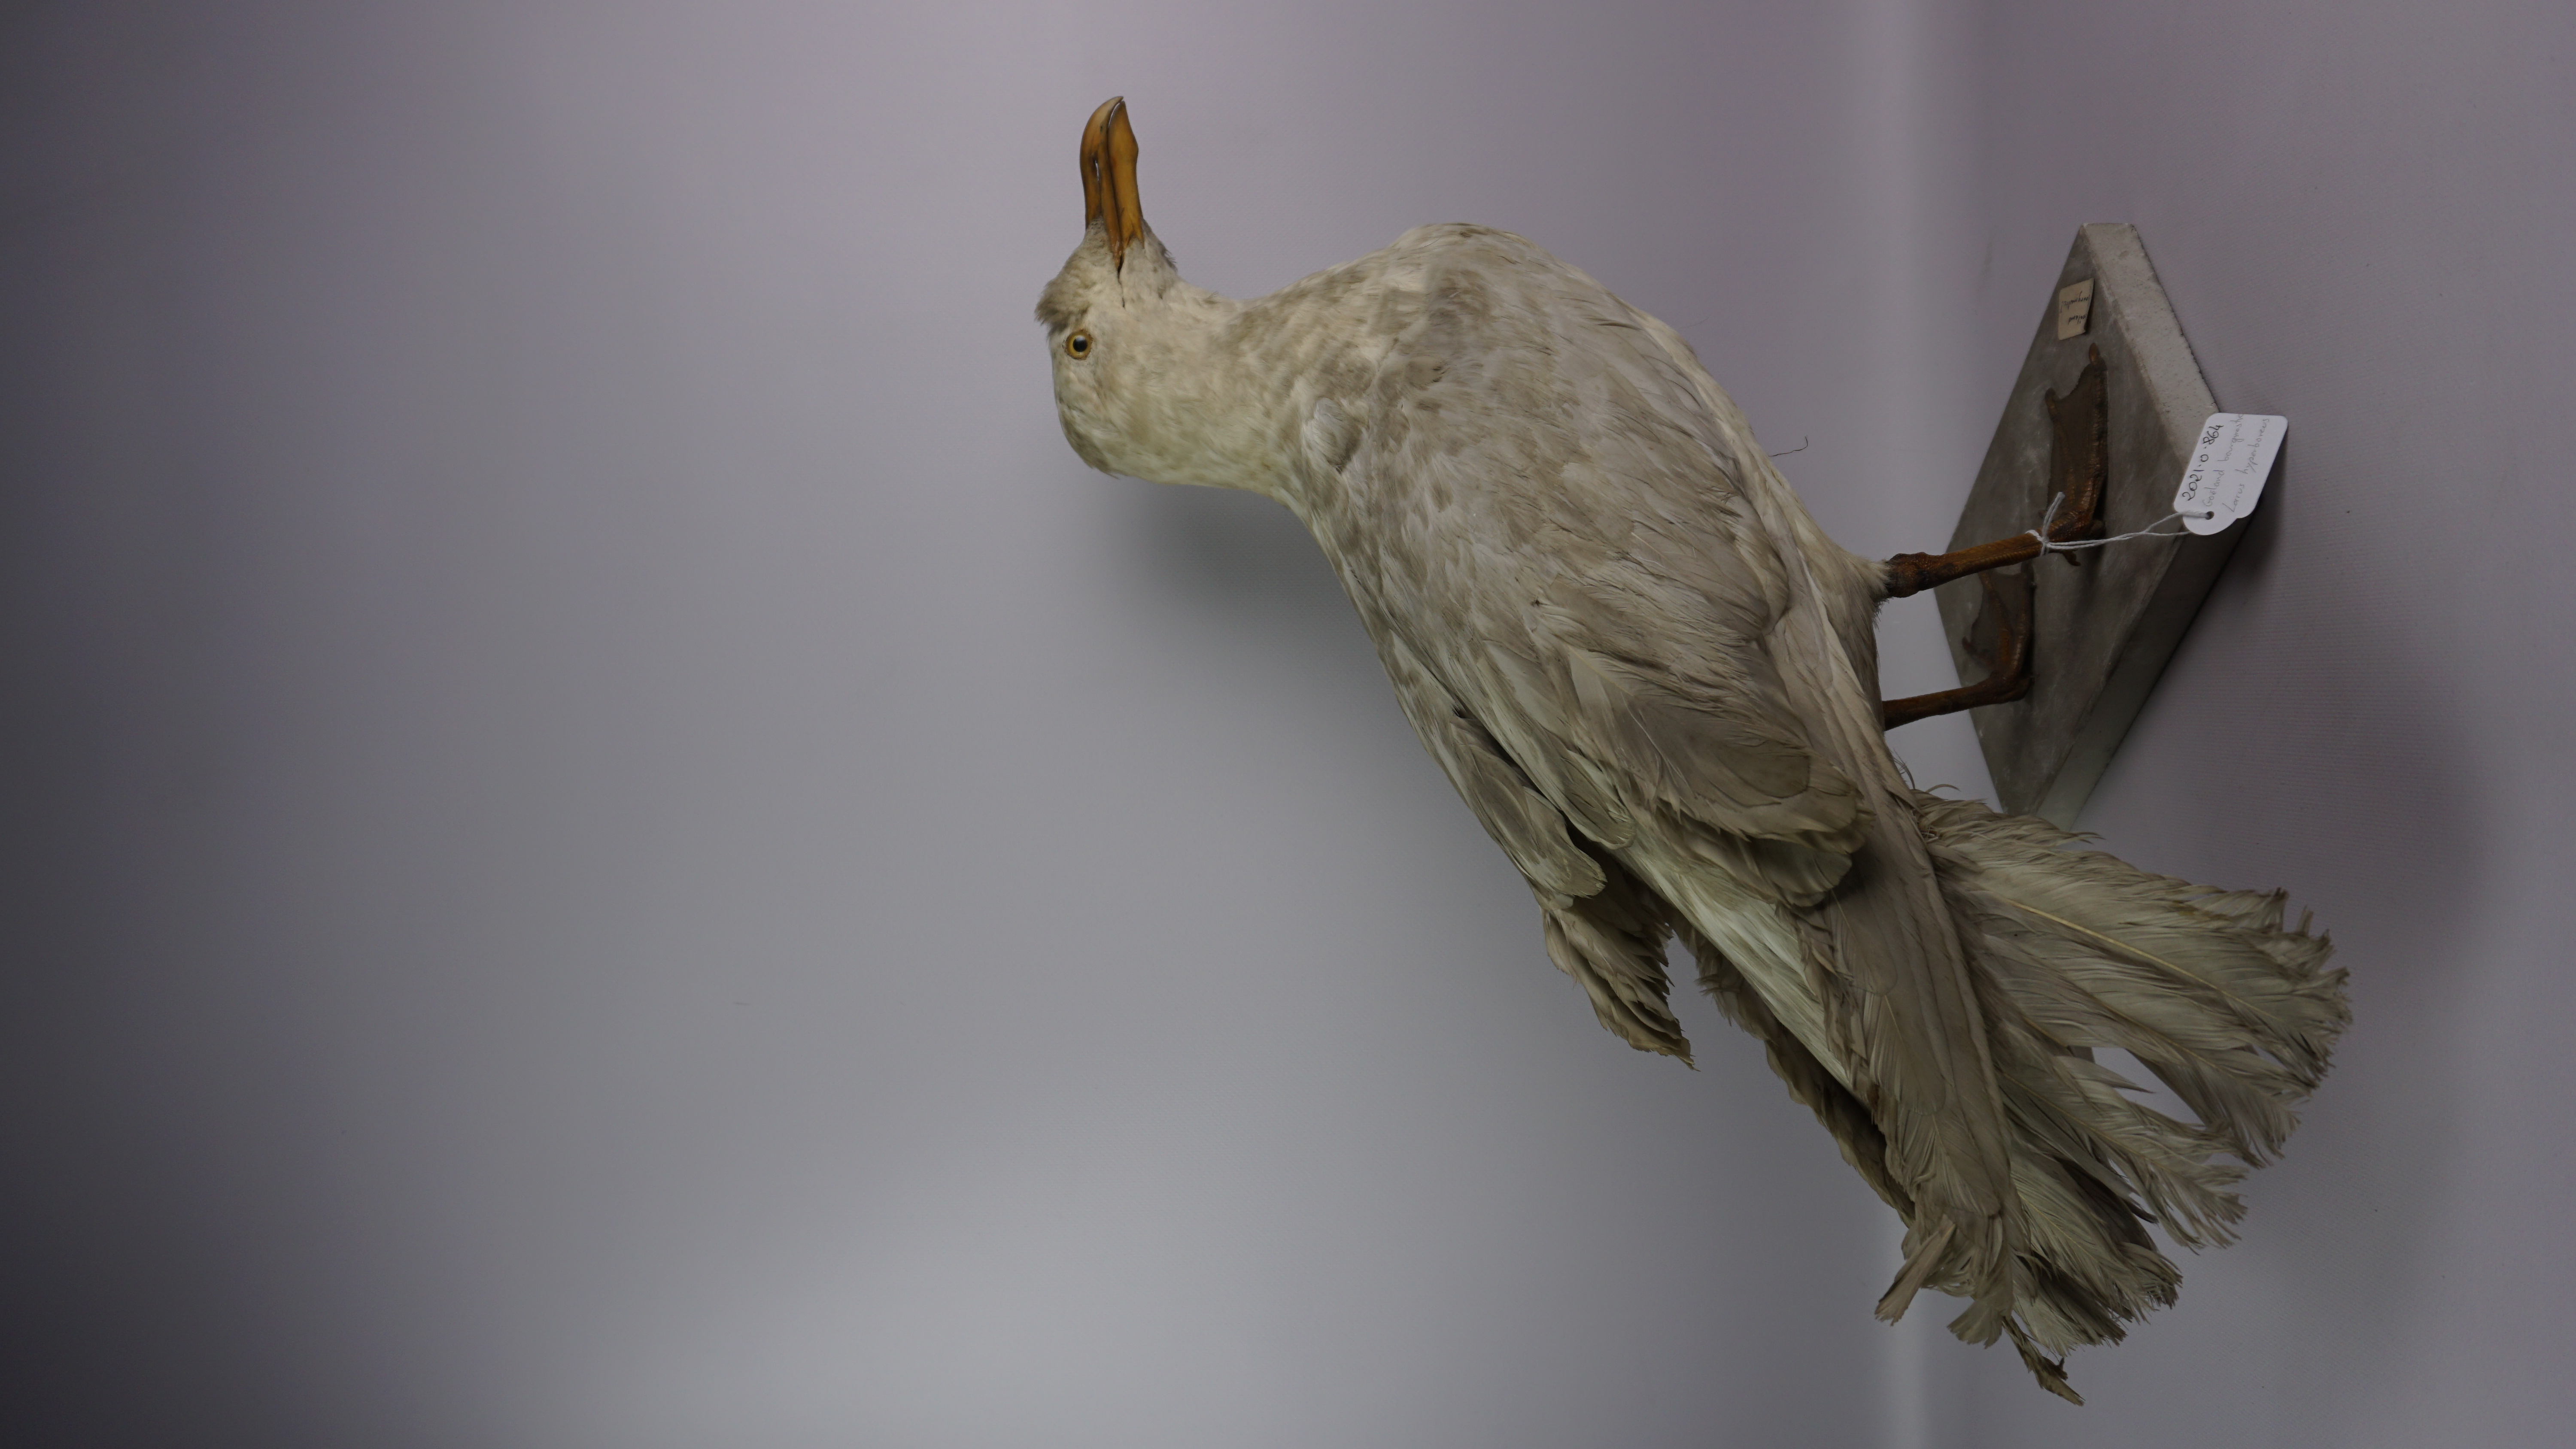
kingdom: Animalia
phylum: Chordata
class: Aves
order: Charadriiformes
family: Laridae
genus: Larus
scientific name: Larus hyperboreus
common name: Glaucous gull
